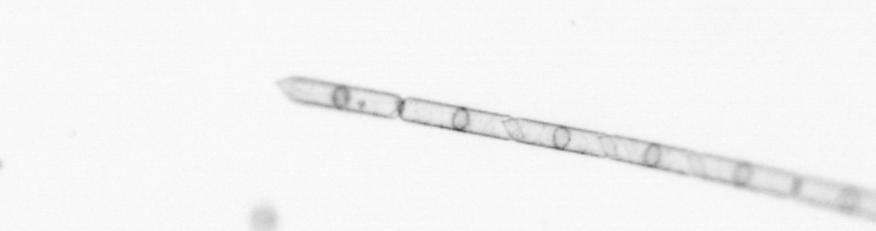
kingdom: Chromista
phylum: Ochrophyta
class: Bacillariophyceae
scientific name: Bacillariophyceae
